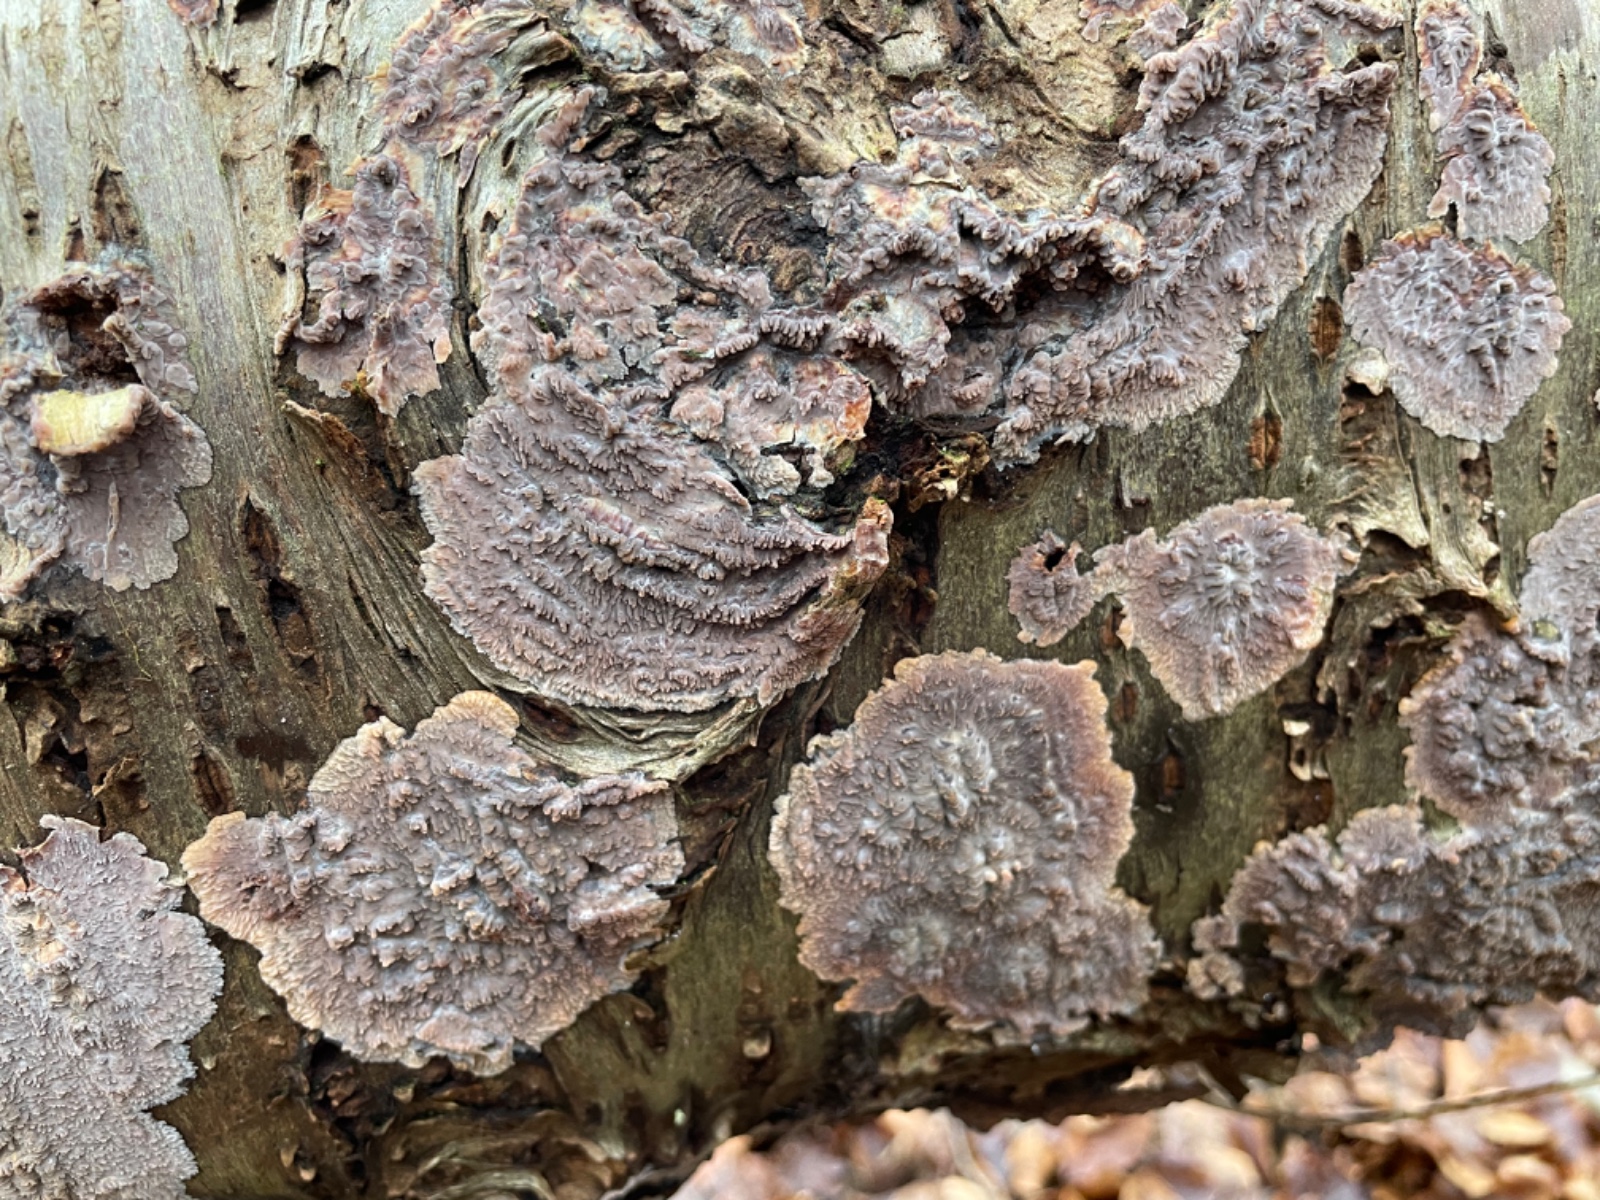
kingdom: Fungi
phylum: Basidiomycota
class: Agaricomycetes
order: Polyporales
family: Meruliaceae
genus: Phlebia
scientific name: Phlebia radiata
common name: stråle-åresvamp
